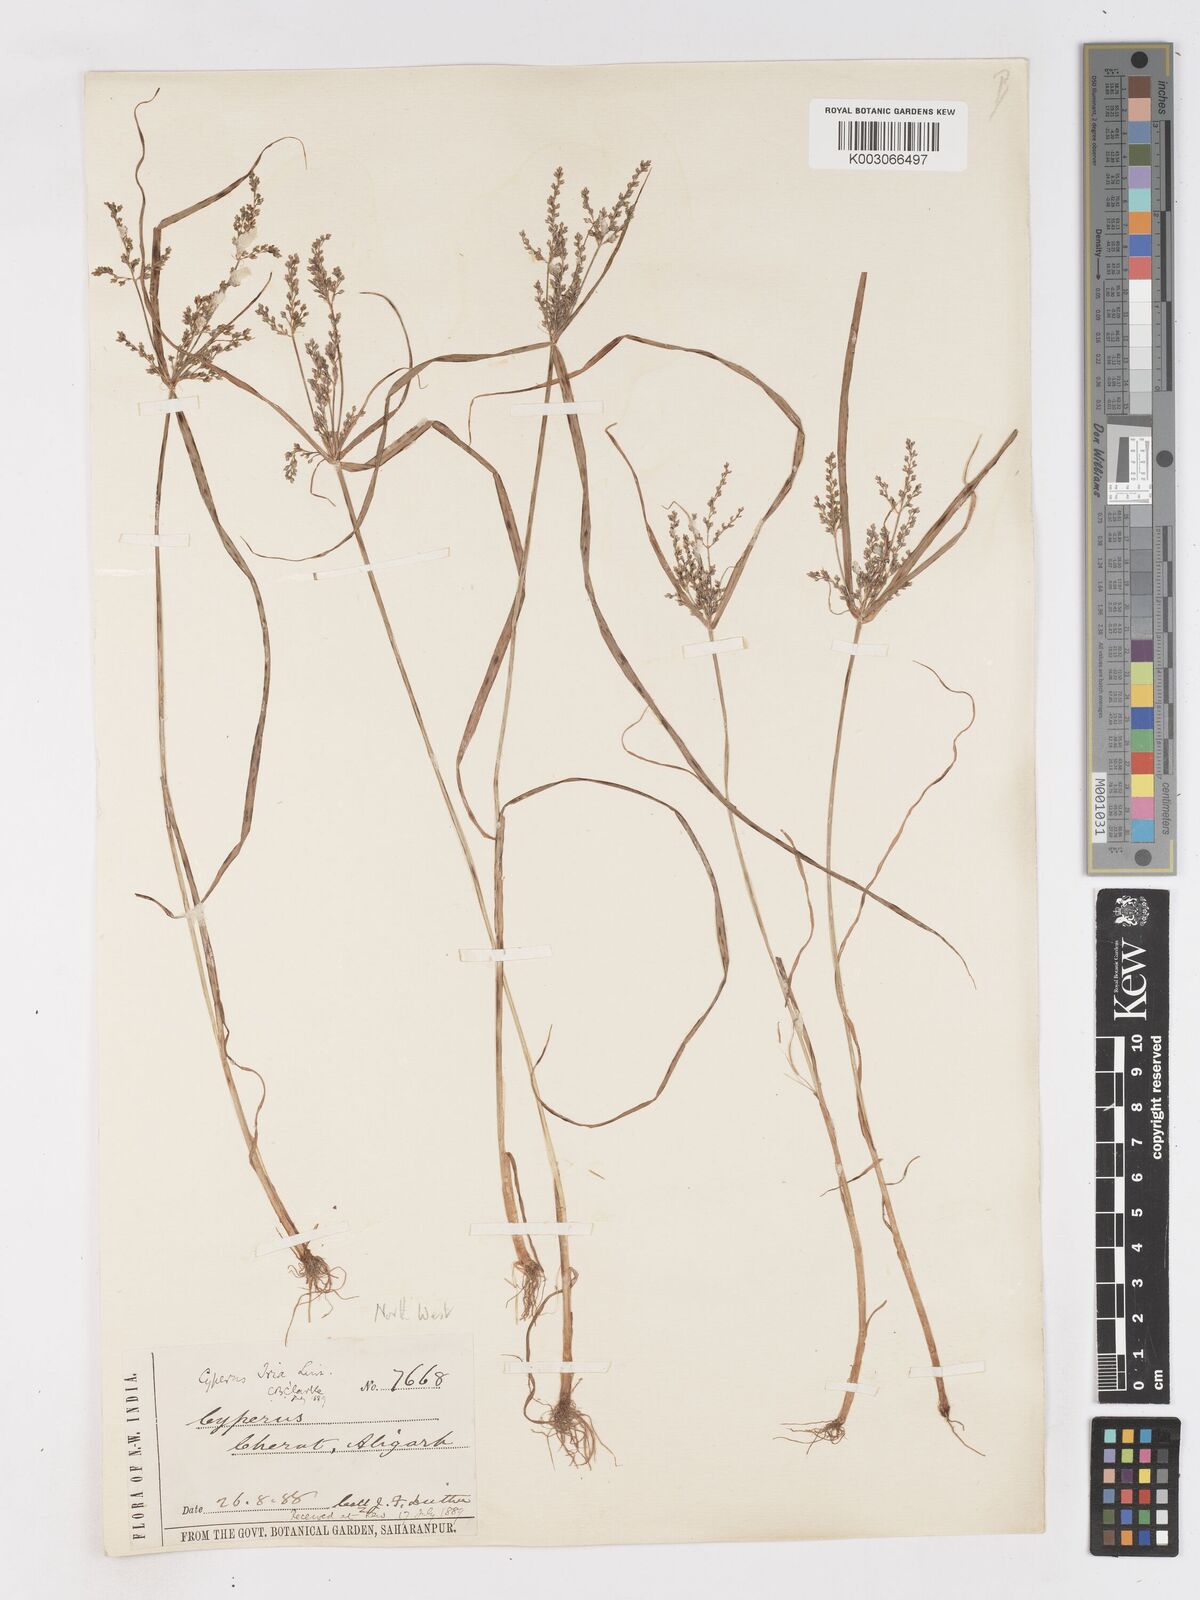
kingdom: Plantae
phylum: Tracheophyta
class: Liliopsida
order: Poales
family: Cyperaceae
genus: Cyperus
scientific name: Cyperus iria
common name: Ricefield flatsedge
